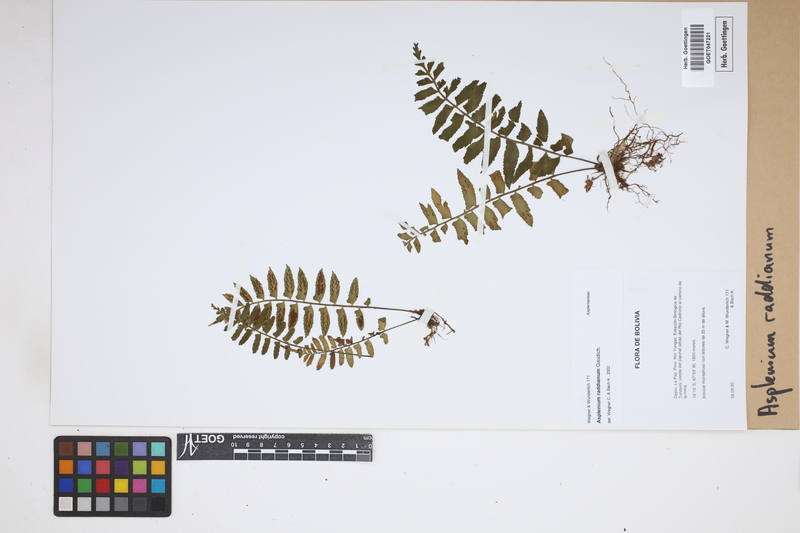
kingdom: Plantae
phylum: Tracheophyta
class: Polypodiopsida
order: Polypodiales
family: Aspleniaceae
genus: Asplenium
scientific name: Asplenium raddianum
